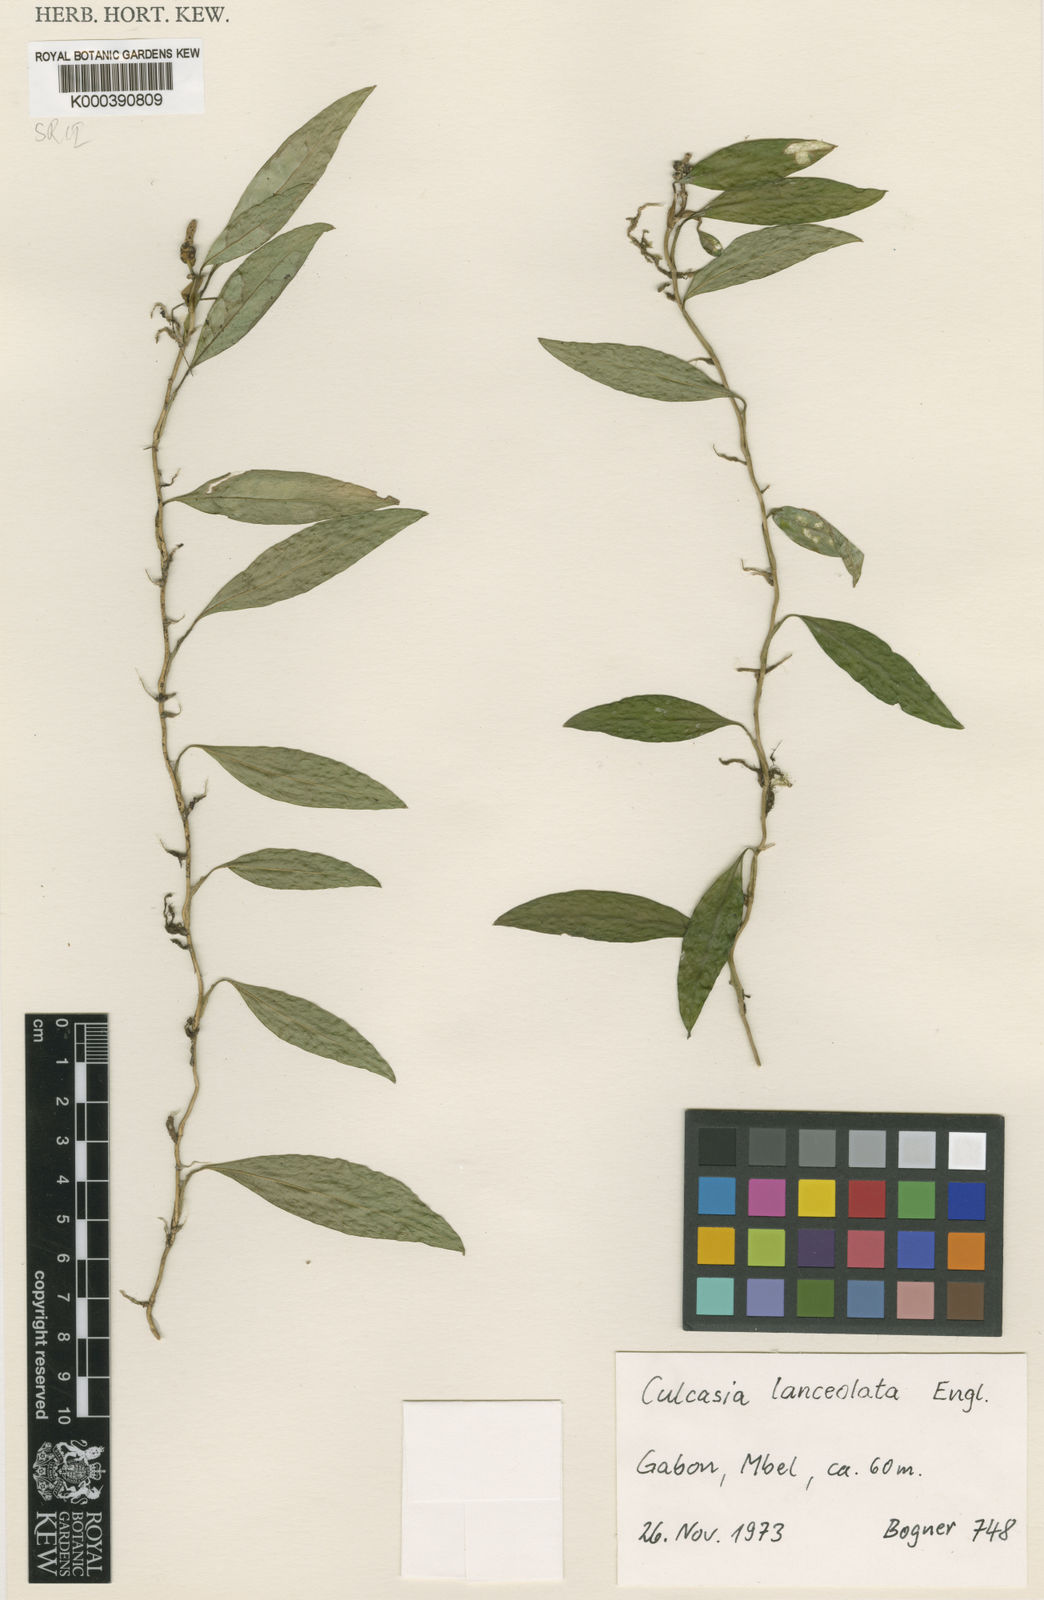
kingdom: Plantae
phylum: Tracheophyta
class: Liliopsida
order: Alismatales
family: Araceae
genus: Culcasia
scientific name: Culcasia lanceolata
